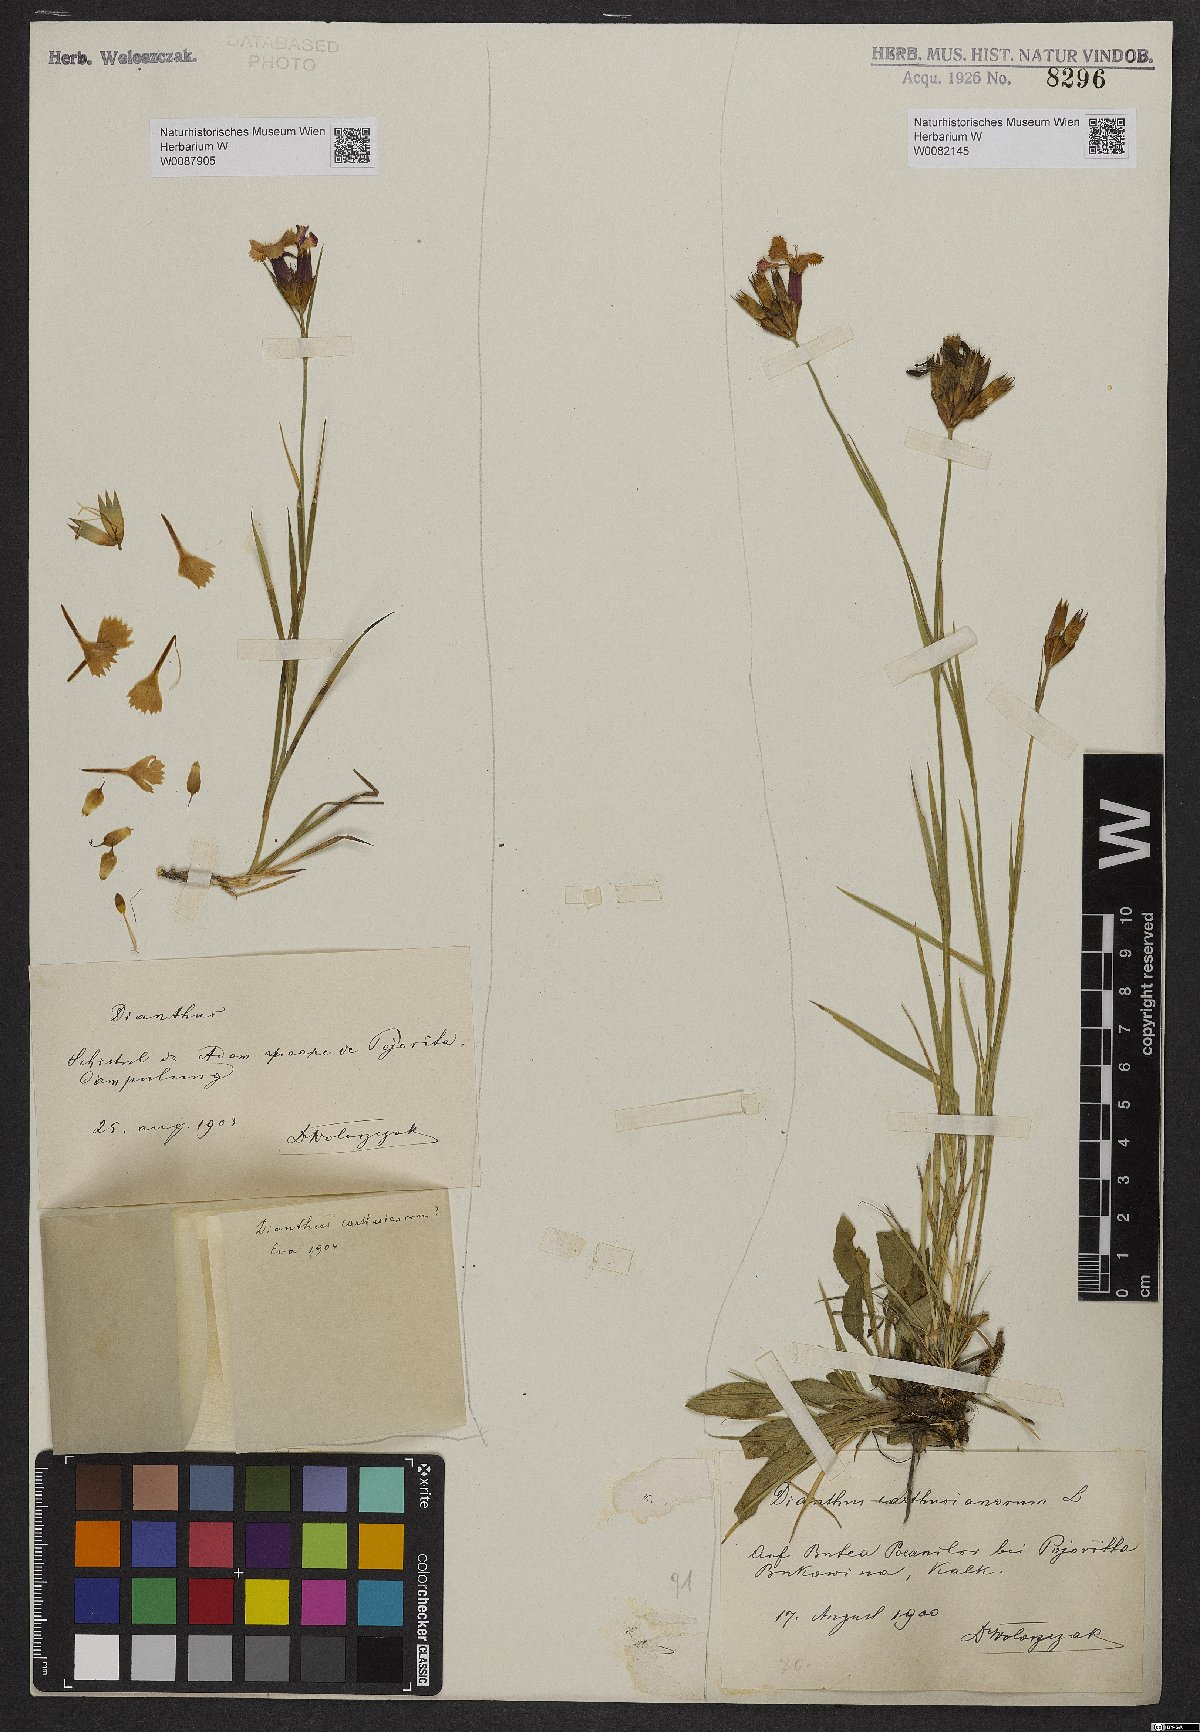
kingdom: Plantae
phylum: Tracheophyta
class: Magnoliopsida
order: Caryophyllales
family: Caryophyllaceae
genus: Dianthus
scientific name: Dianthus carthusianorum
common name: Carthusian pink
